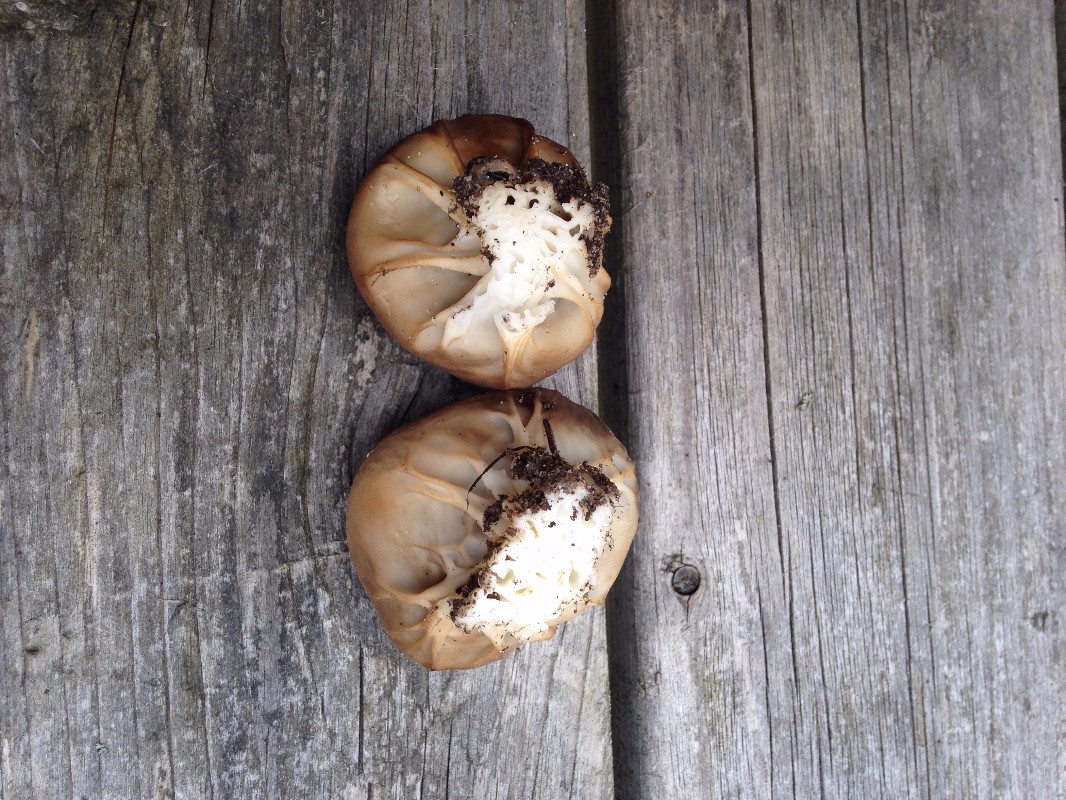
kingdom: Fungi
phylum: Ascomycota
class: Pezizomycetes
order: Pezizales
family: Helvellaceae
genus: Helvella
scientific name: Helvella acetabulum
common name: pokal-foldhat
